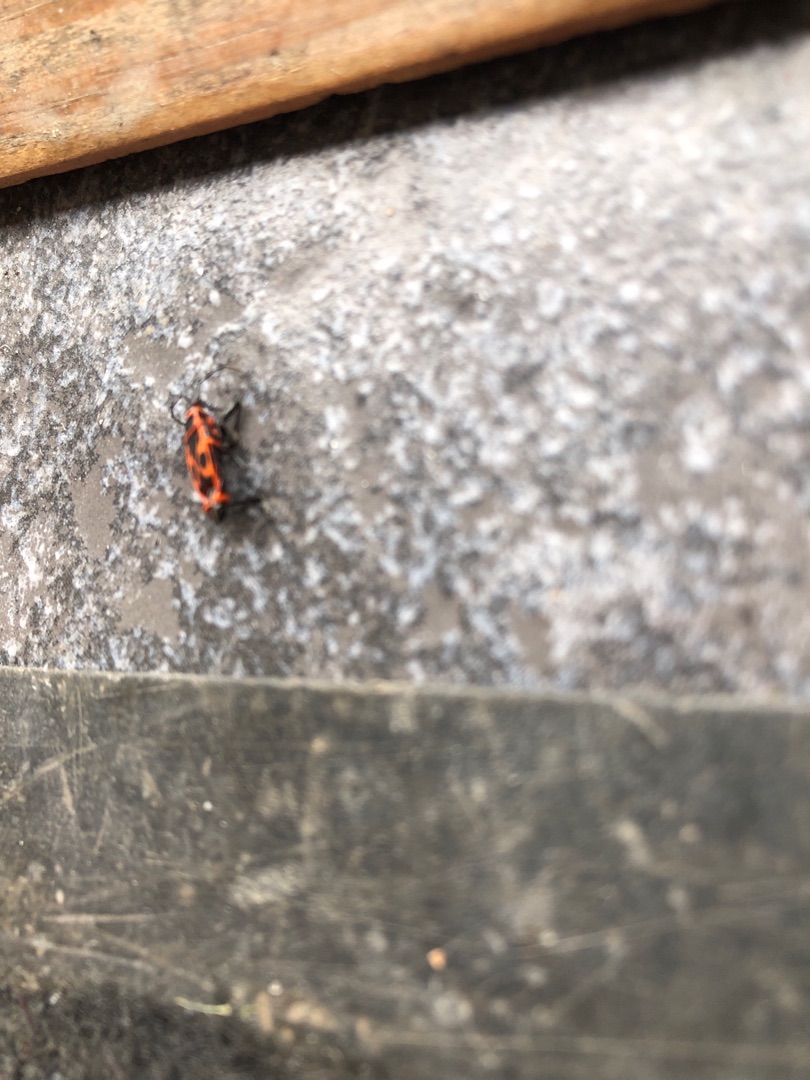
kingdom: Animalia
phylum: Arthropoda
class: Insecta
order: Hemiptera
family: Pyrrhocoridae
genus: Pyrrhocoris
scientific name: Pyrrhocoris apterus
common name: Ildtæge
